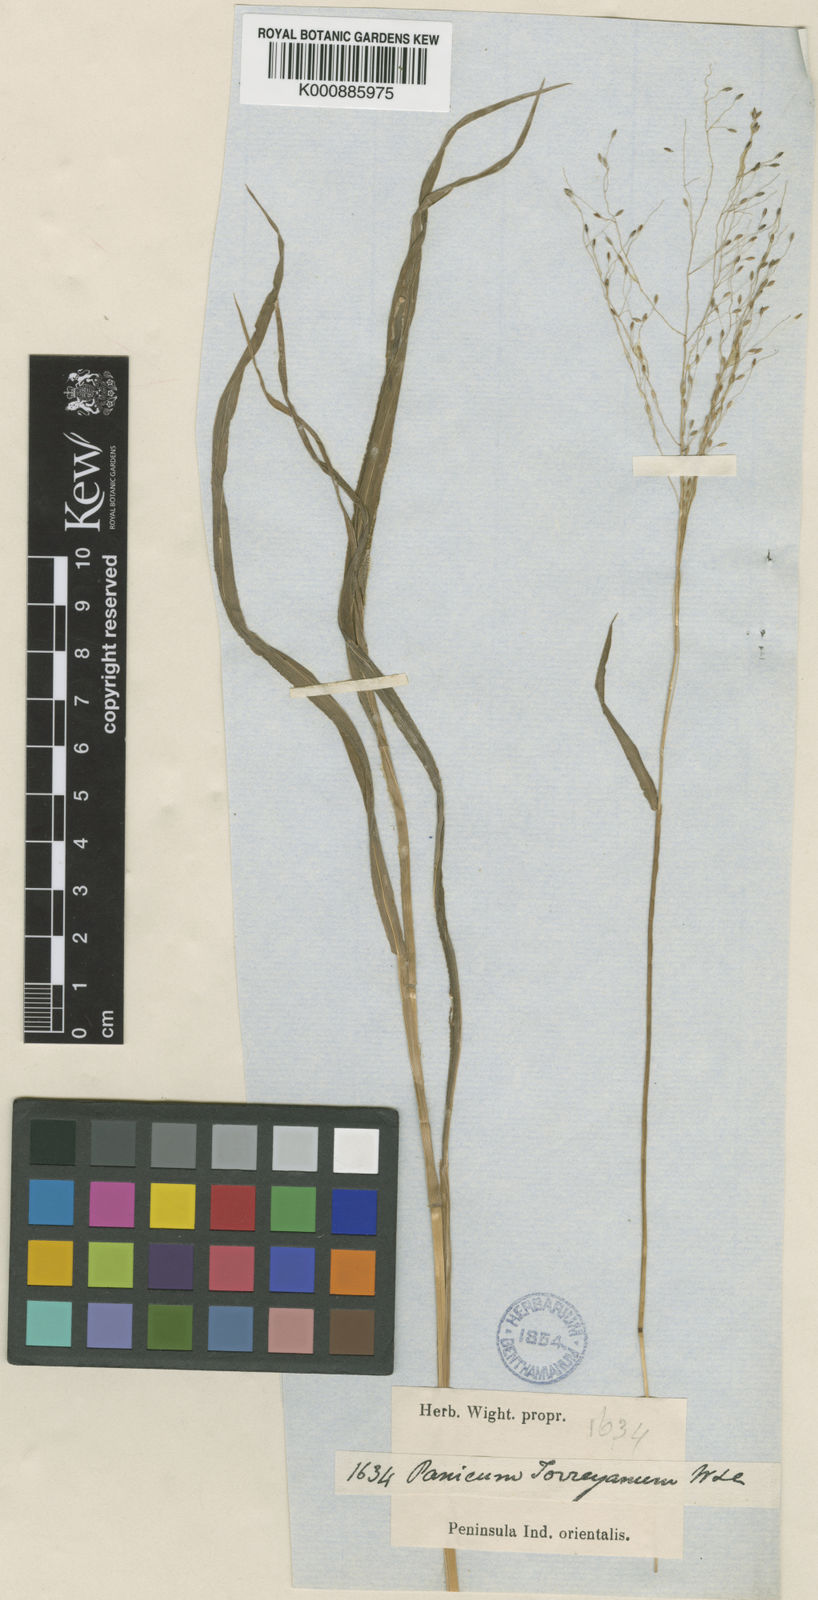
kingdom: Plantae
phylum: Tracheophyta
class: Liliopsida
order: Poales
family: Poaceae
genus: Digitaria
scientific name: Digitaria tomentosa
